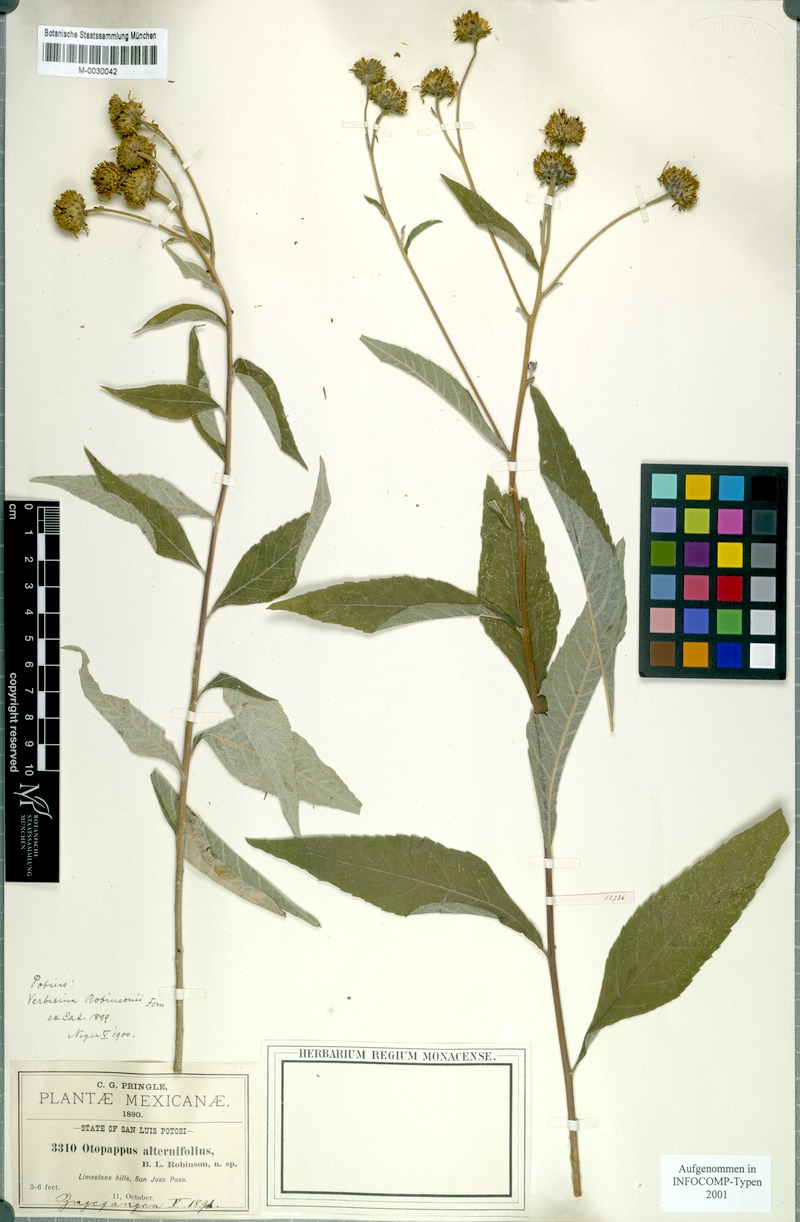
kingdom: Plantae
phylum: Tracheophyta
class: Magnoliopsida
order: Asterales
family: Asteraceae
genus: Verbesina
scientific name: Verbesina robinsonii
